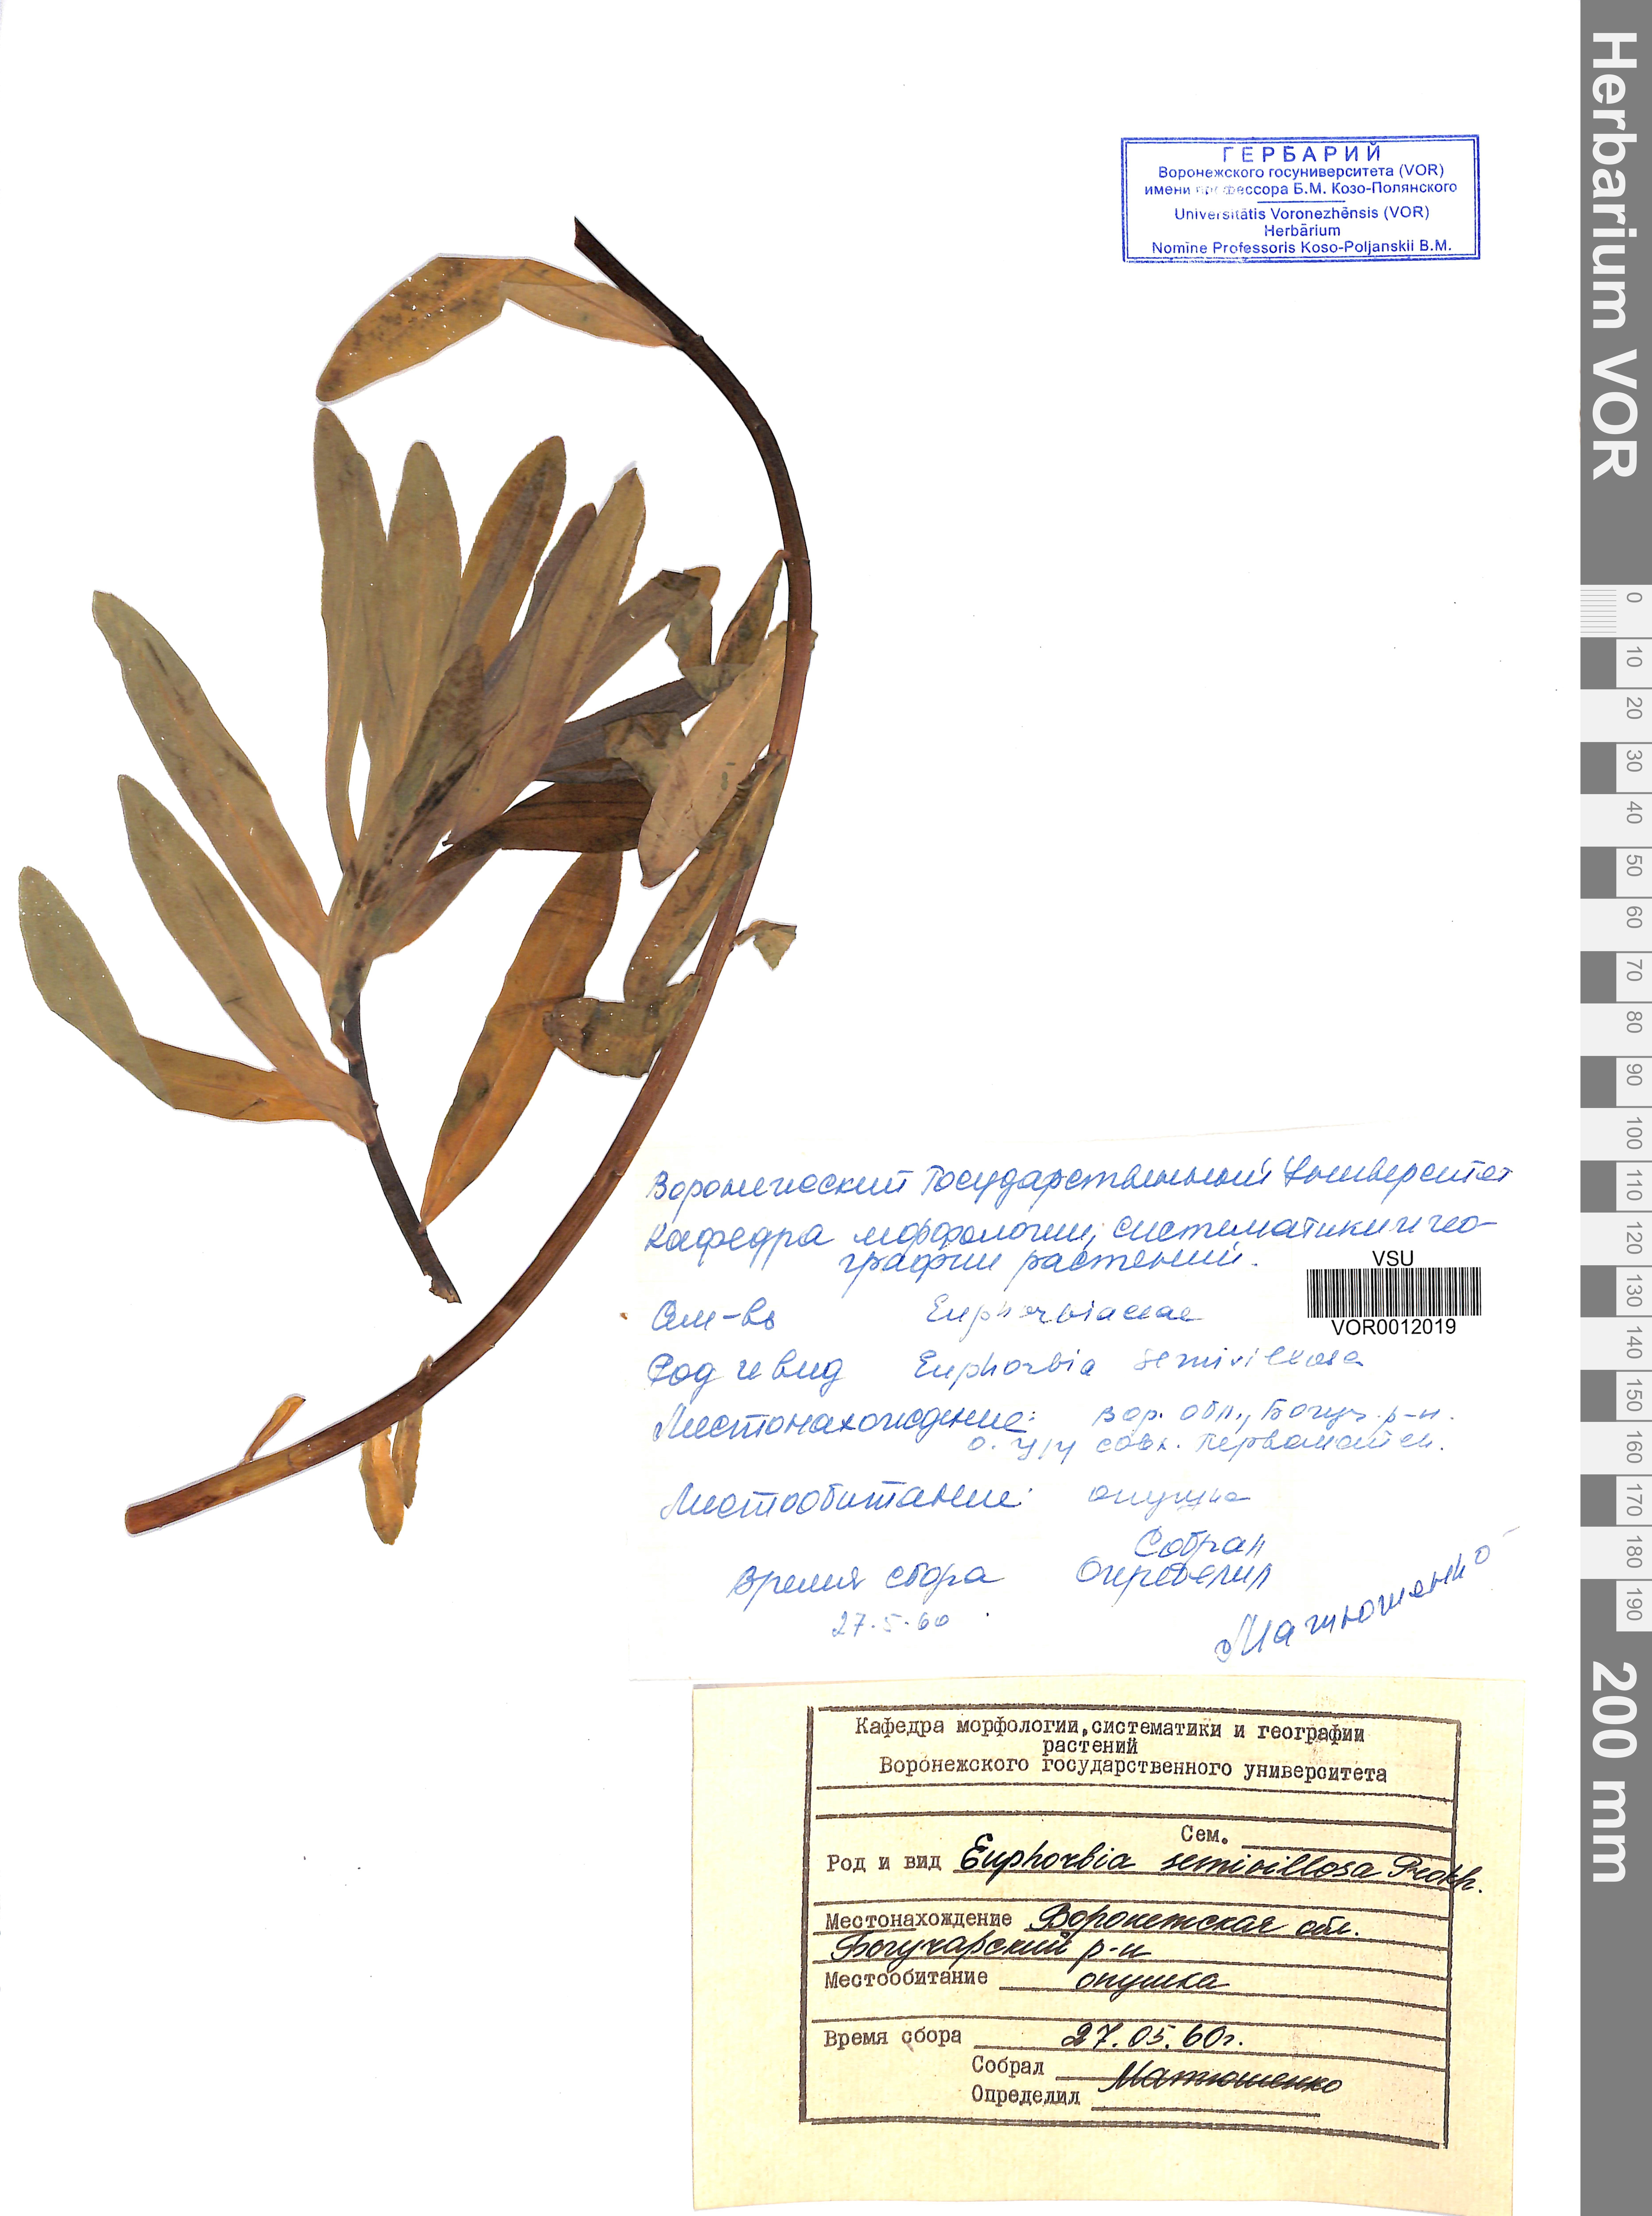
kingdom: Plantae
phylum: Tracheophyta
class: Magnoliopsida
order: Malpighiales
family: Euphorbiaceae
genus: Euphorbia
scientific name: Euphorbia semivillosa
